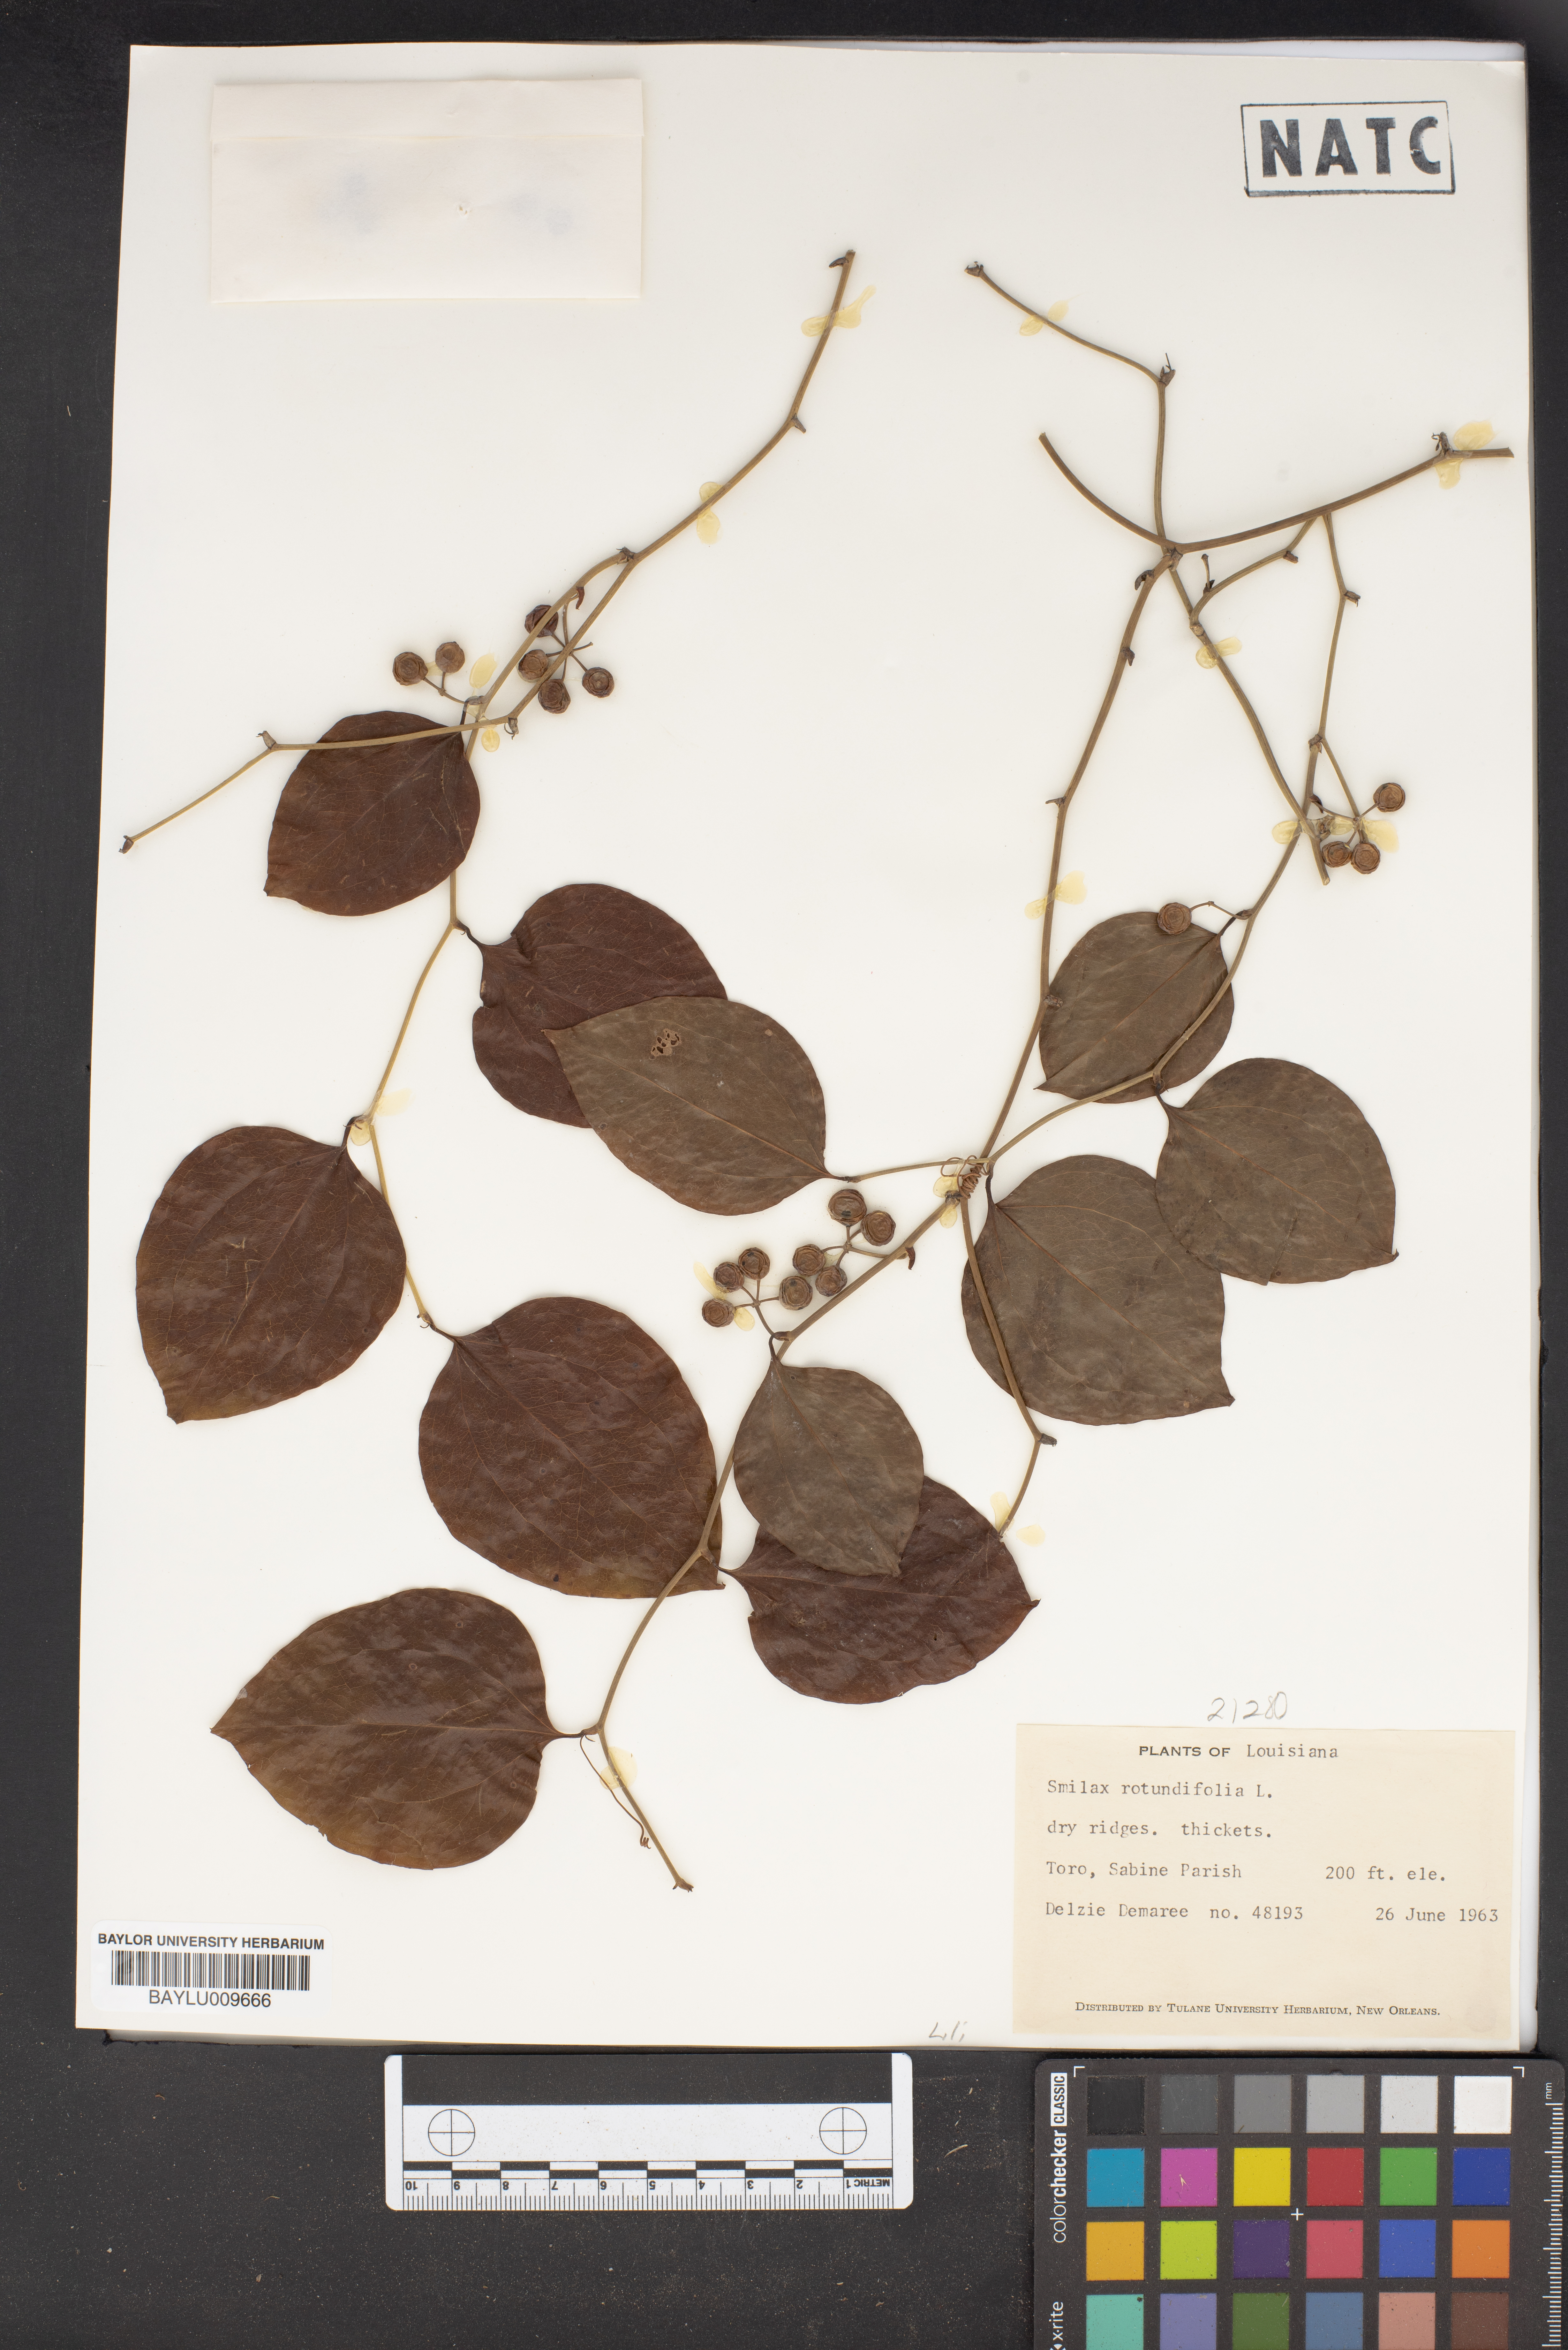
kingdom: Plantae
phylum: Tracheophyta
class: Liliopsida
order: Liliales
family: Smilacaceae
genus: Smilax
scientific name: Smilax rotundifolia
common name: Bullbriar
